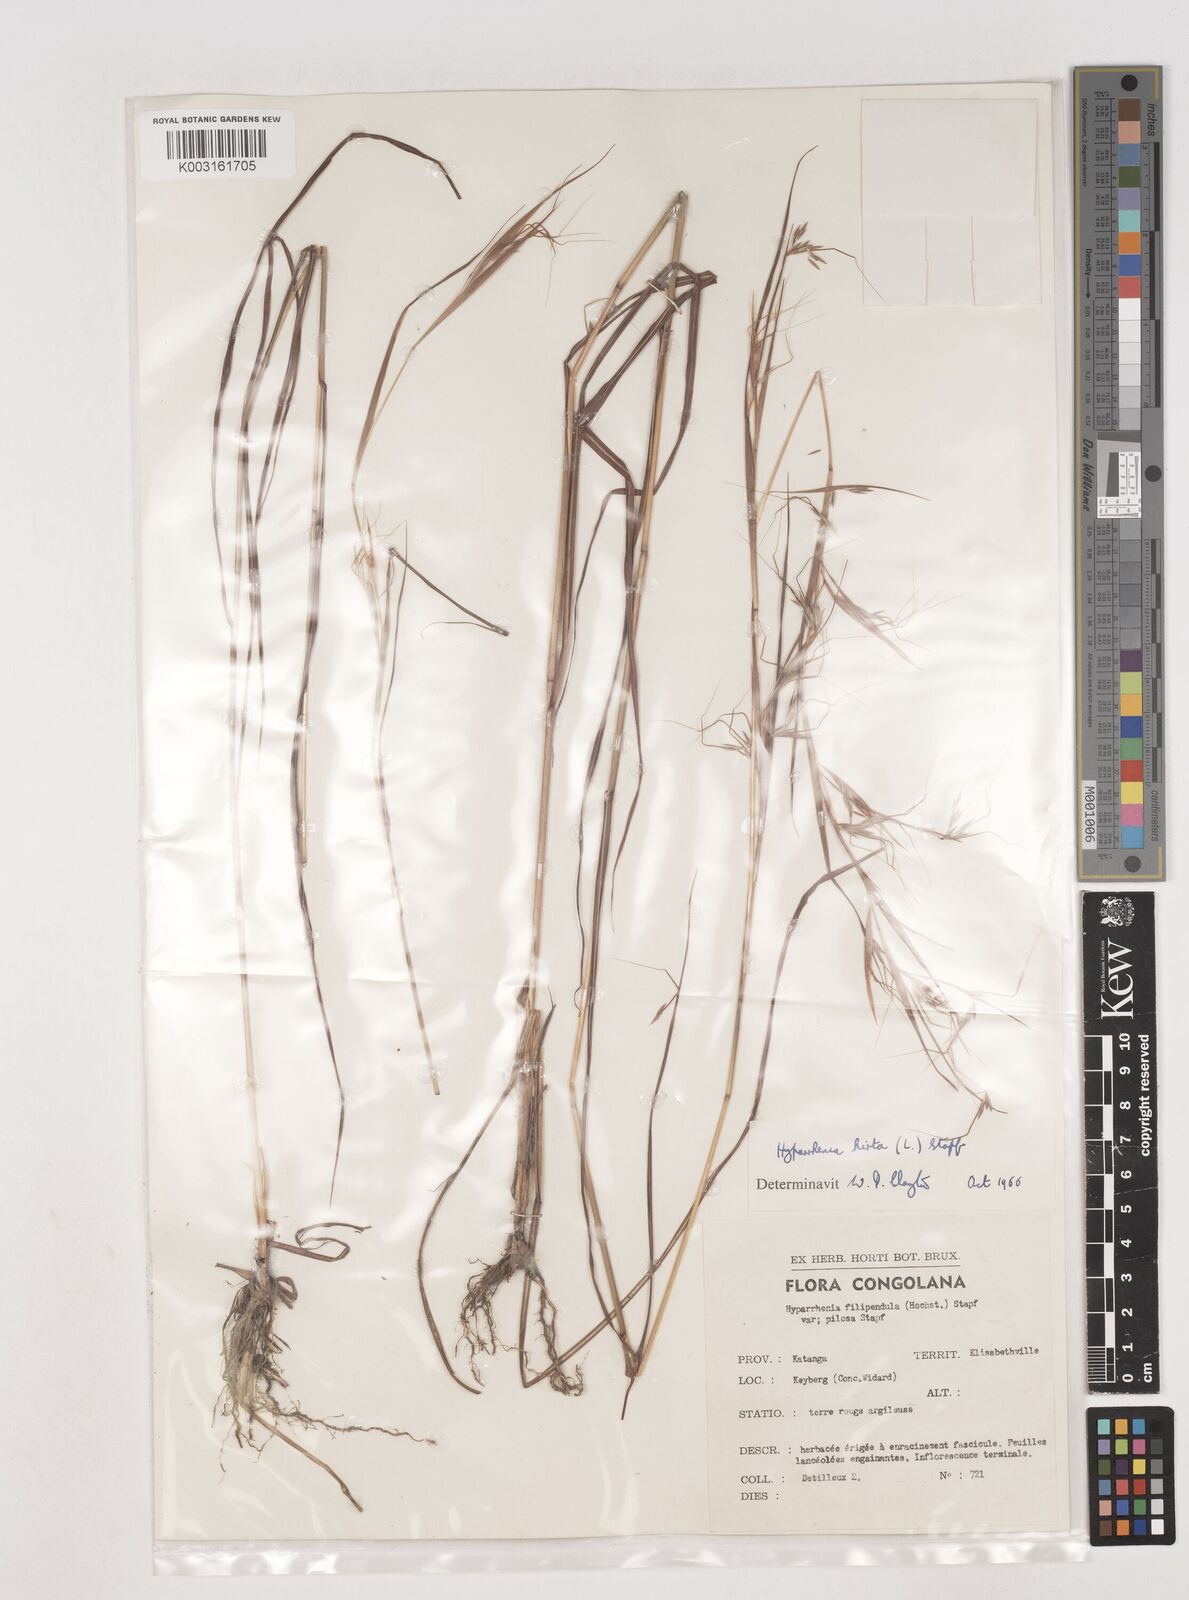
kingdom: Plantae
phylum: Tracheophyta
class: Liliopsida
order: Poales
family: Poaceae
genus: Hyparrhenia
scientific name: Hyparrhenia hirta
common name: Thatching grass
